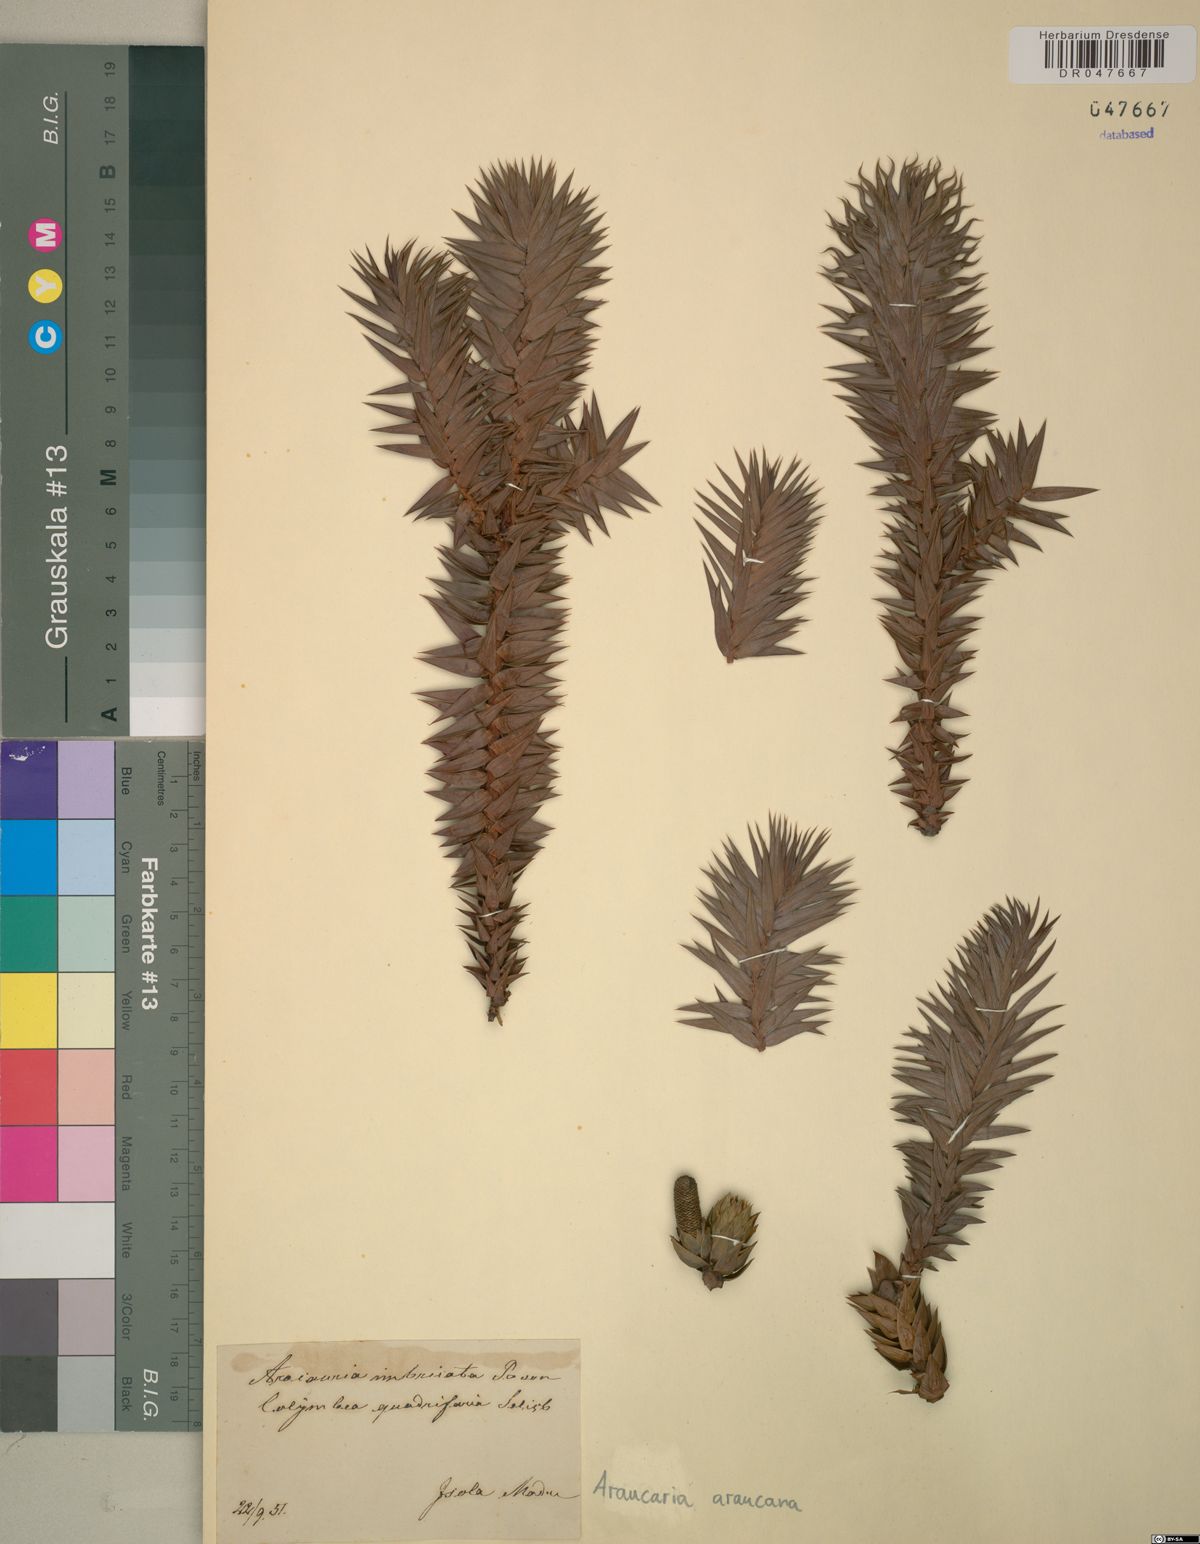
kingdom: Plantae
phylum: Tracheophyta
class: Pinopsida
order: Pinales
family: Araucariaceae
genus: Araucaria
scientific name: Araucaria araucana
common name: Monkey-puzzle
